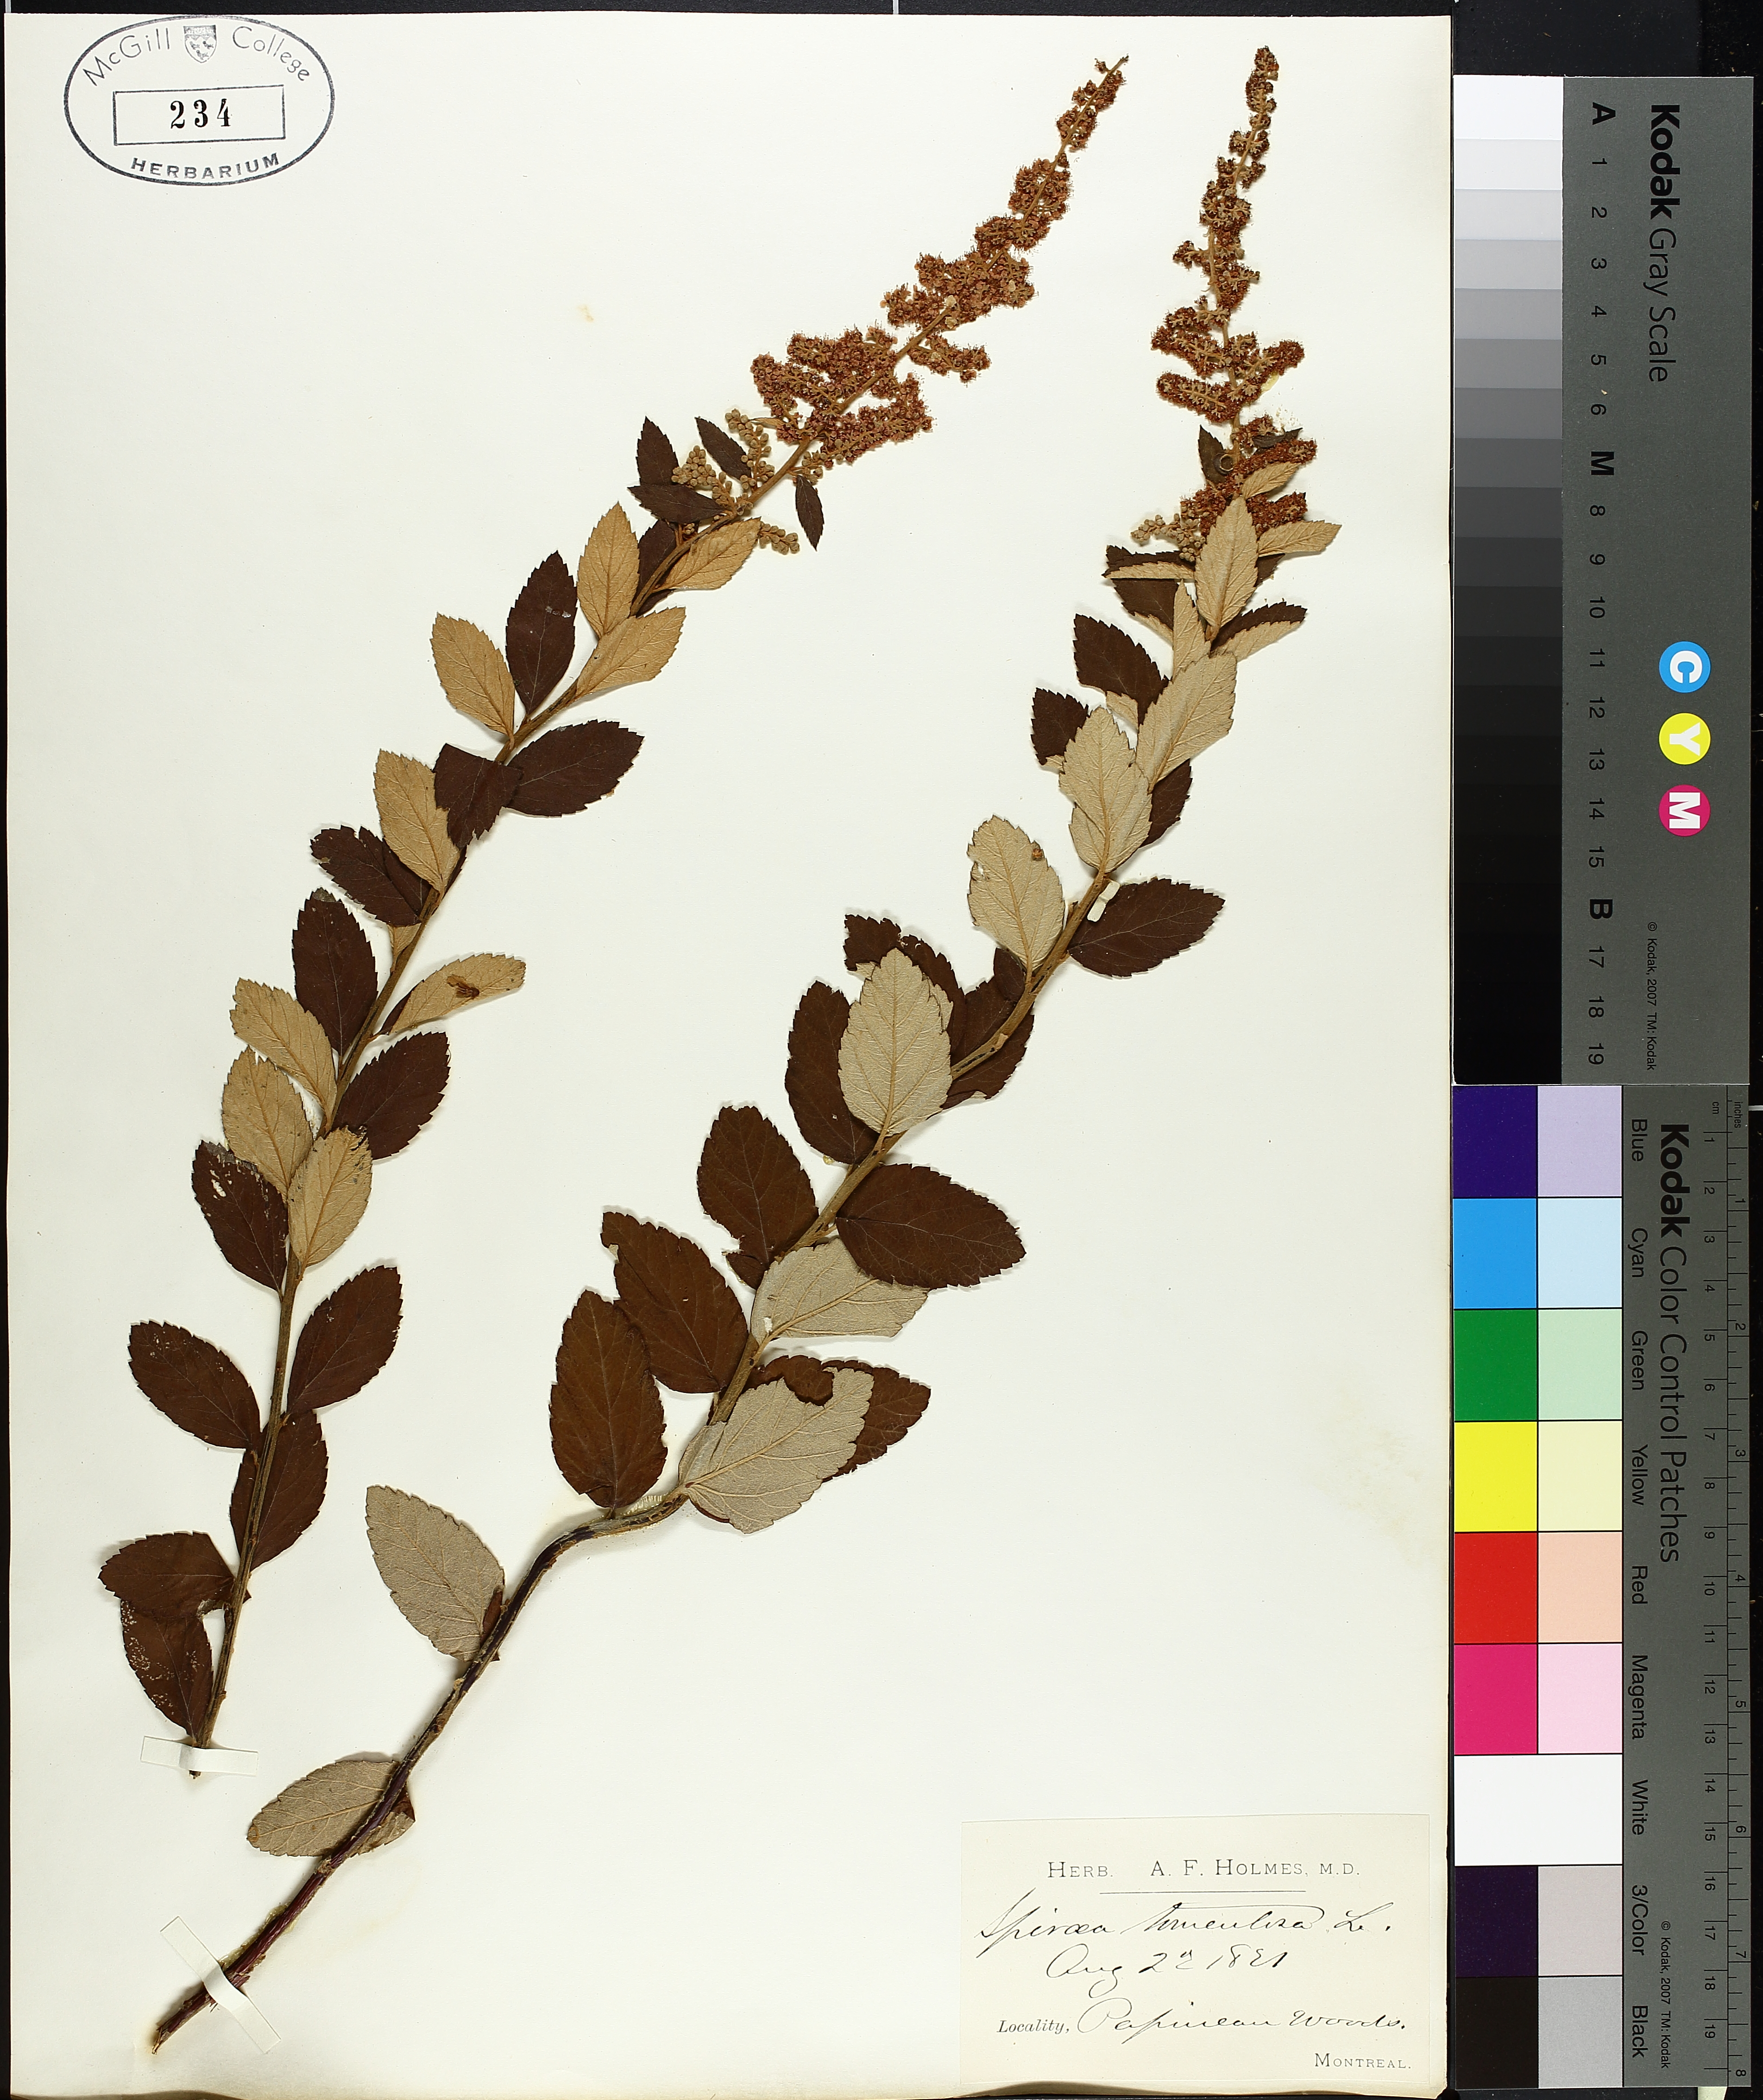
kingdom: Plantae
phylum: Tracheophyta
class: Magnoliopsida
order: Rosales
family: Rosaceae
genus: Spiraea
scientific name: Spiraea tomentosa
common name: Hardhack
